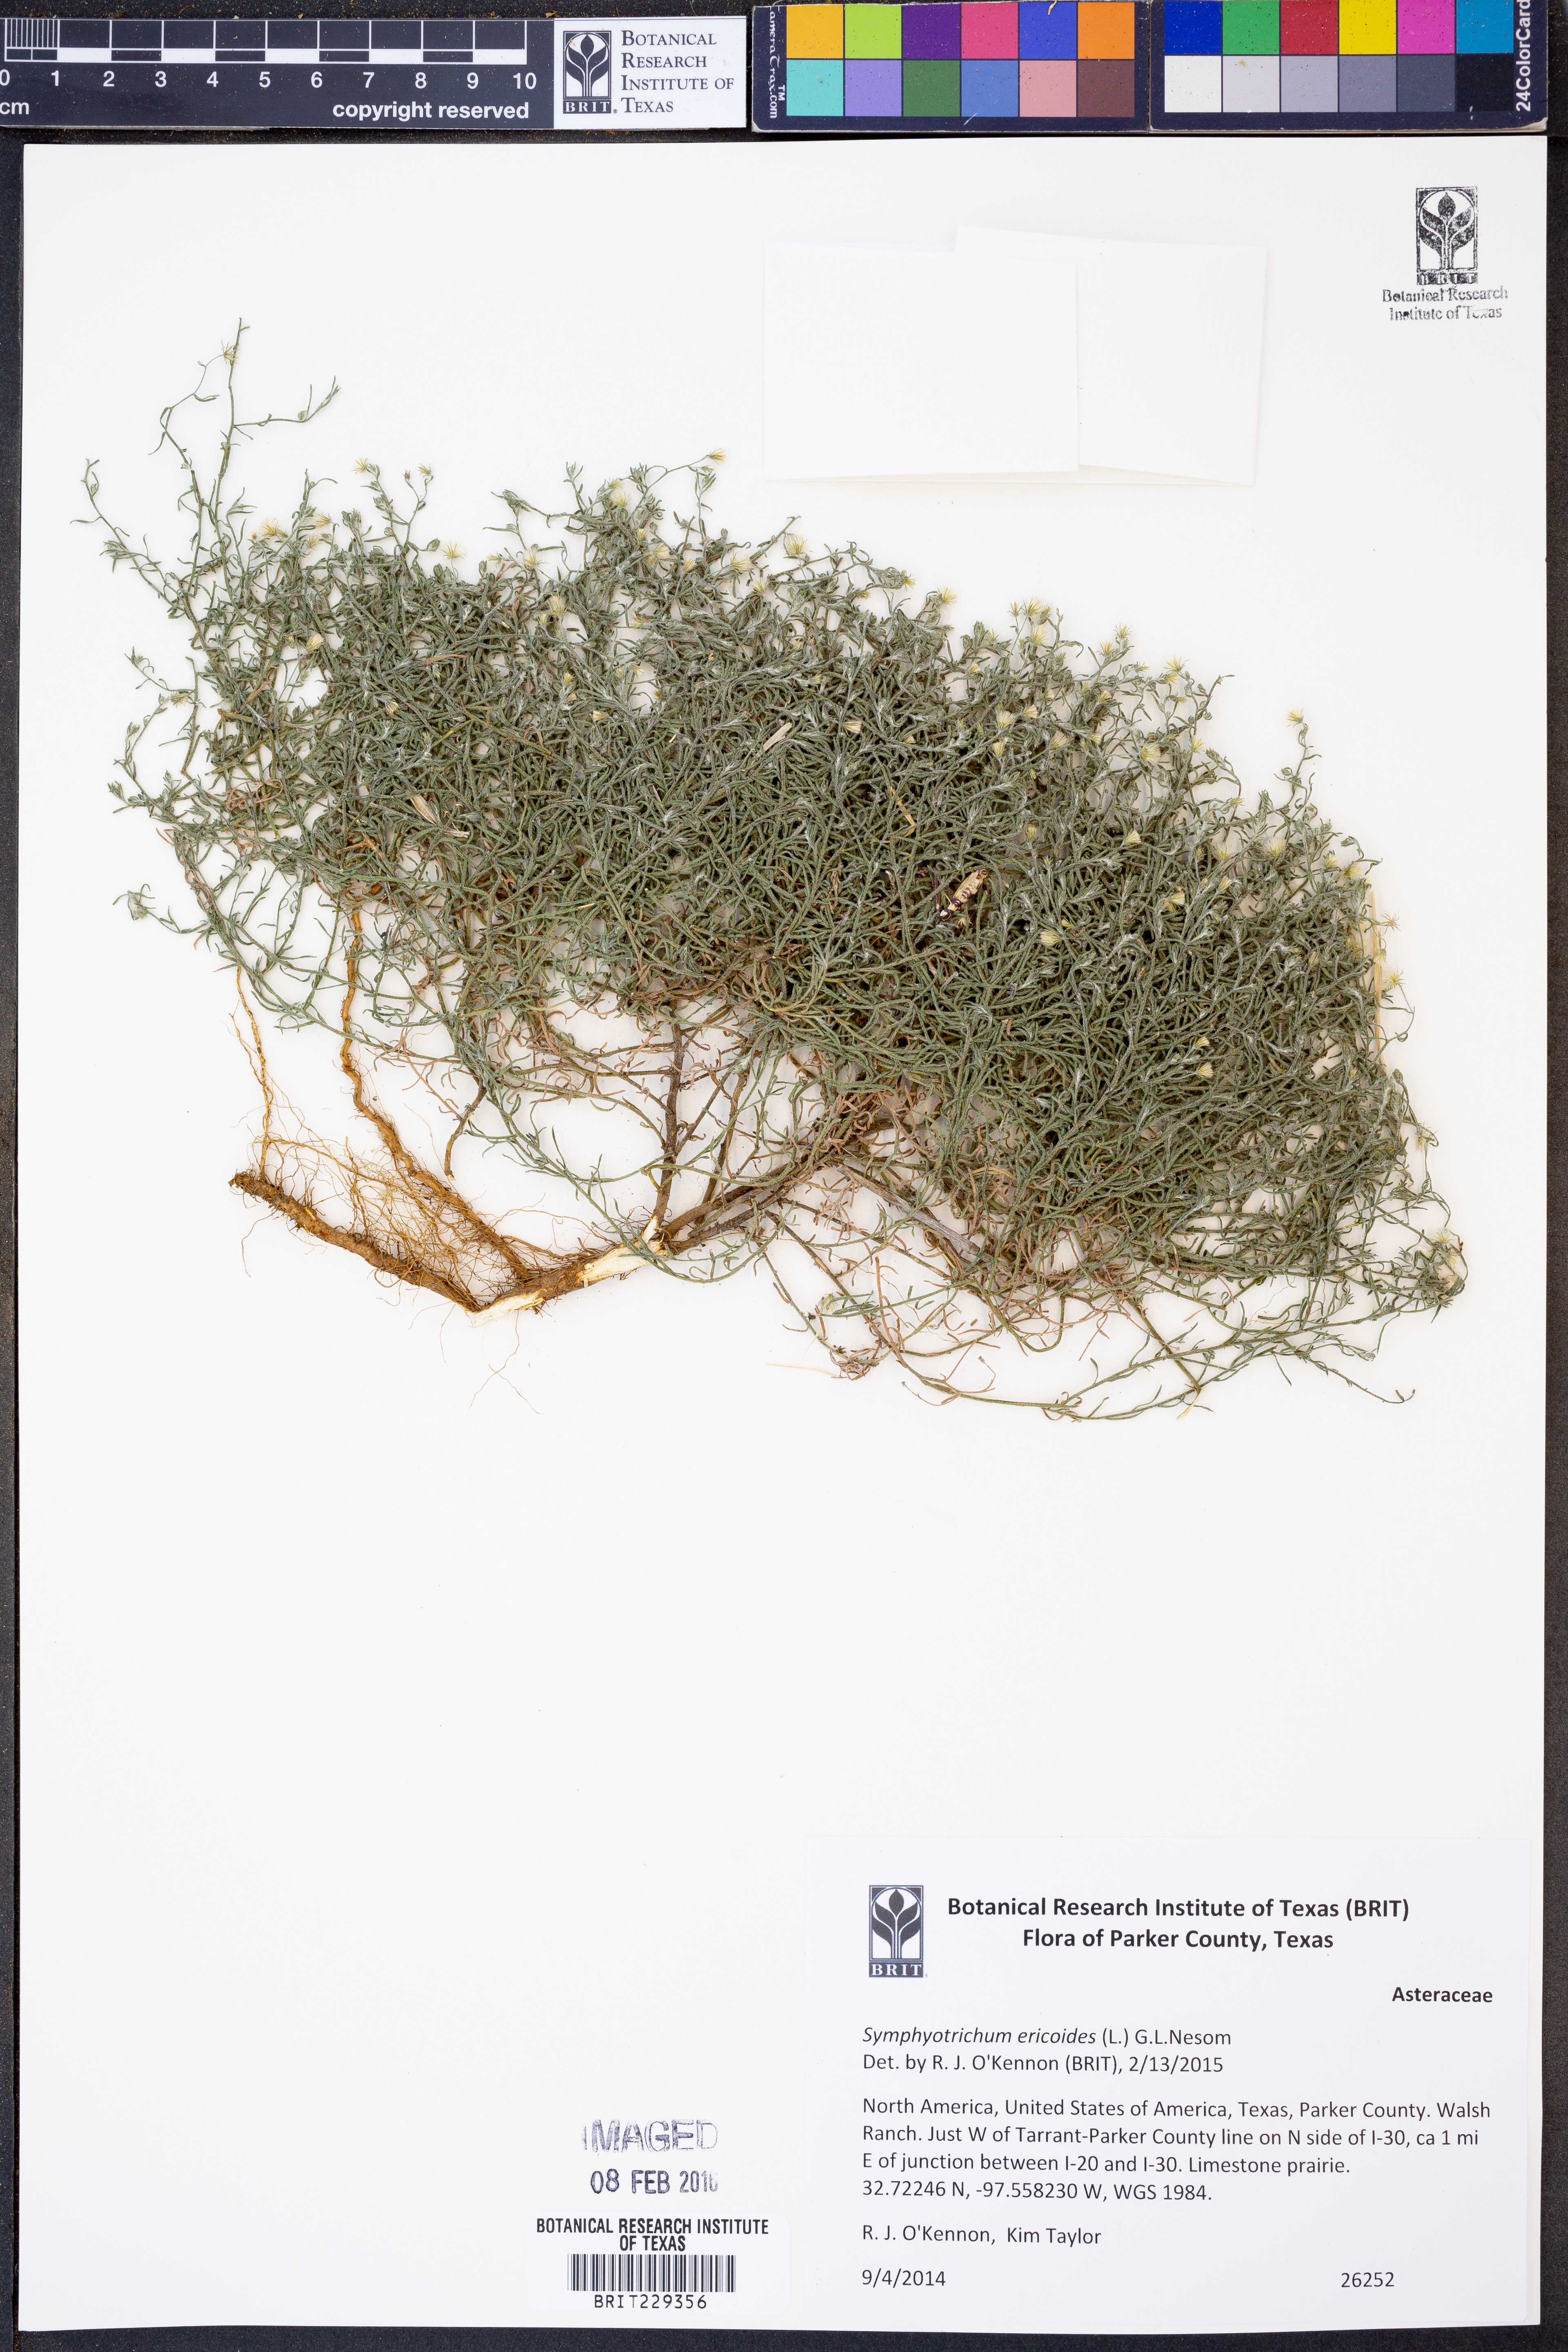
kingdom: Plantae
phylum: Tracheophyta
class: Magnoliopsida
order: Asterales
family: Asteraceae
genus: Symphyotrichum
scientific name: Symphyotrichum ericoides
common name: Heath aster
